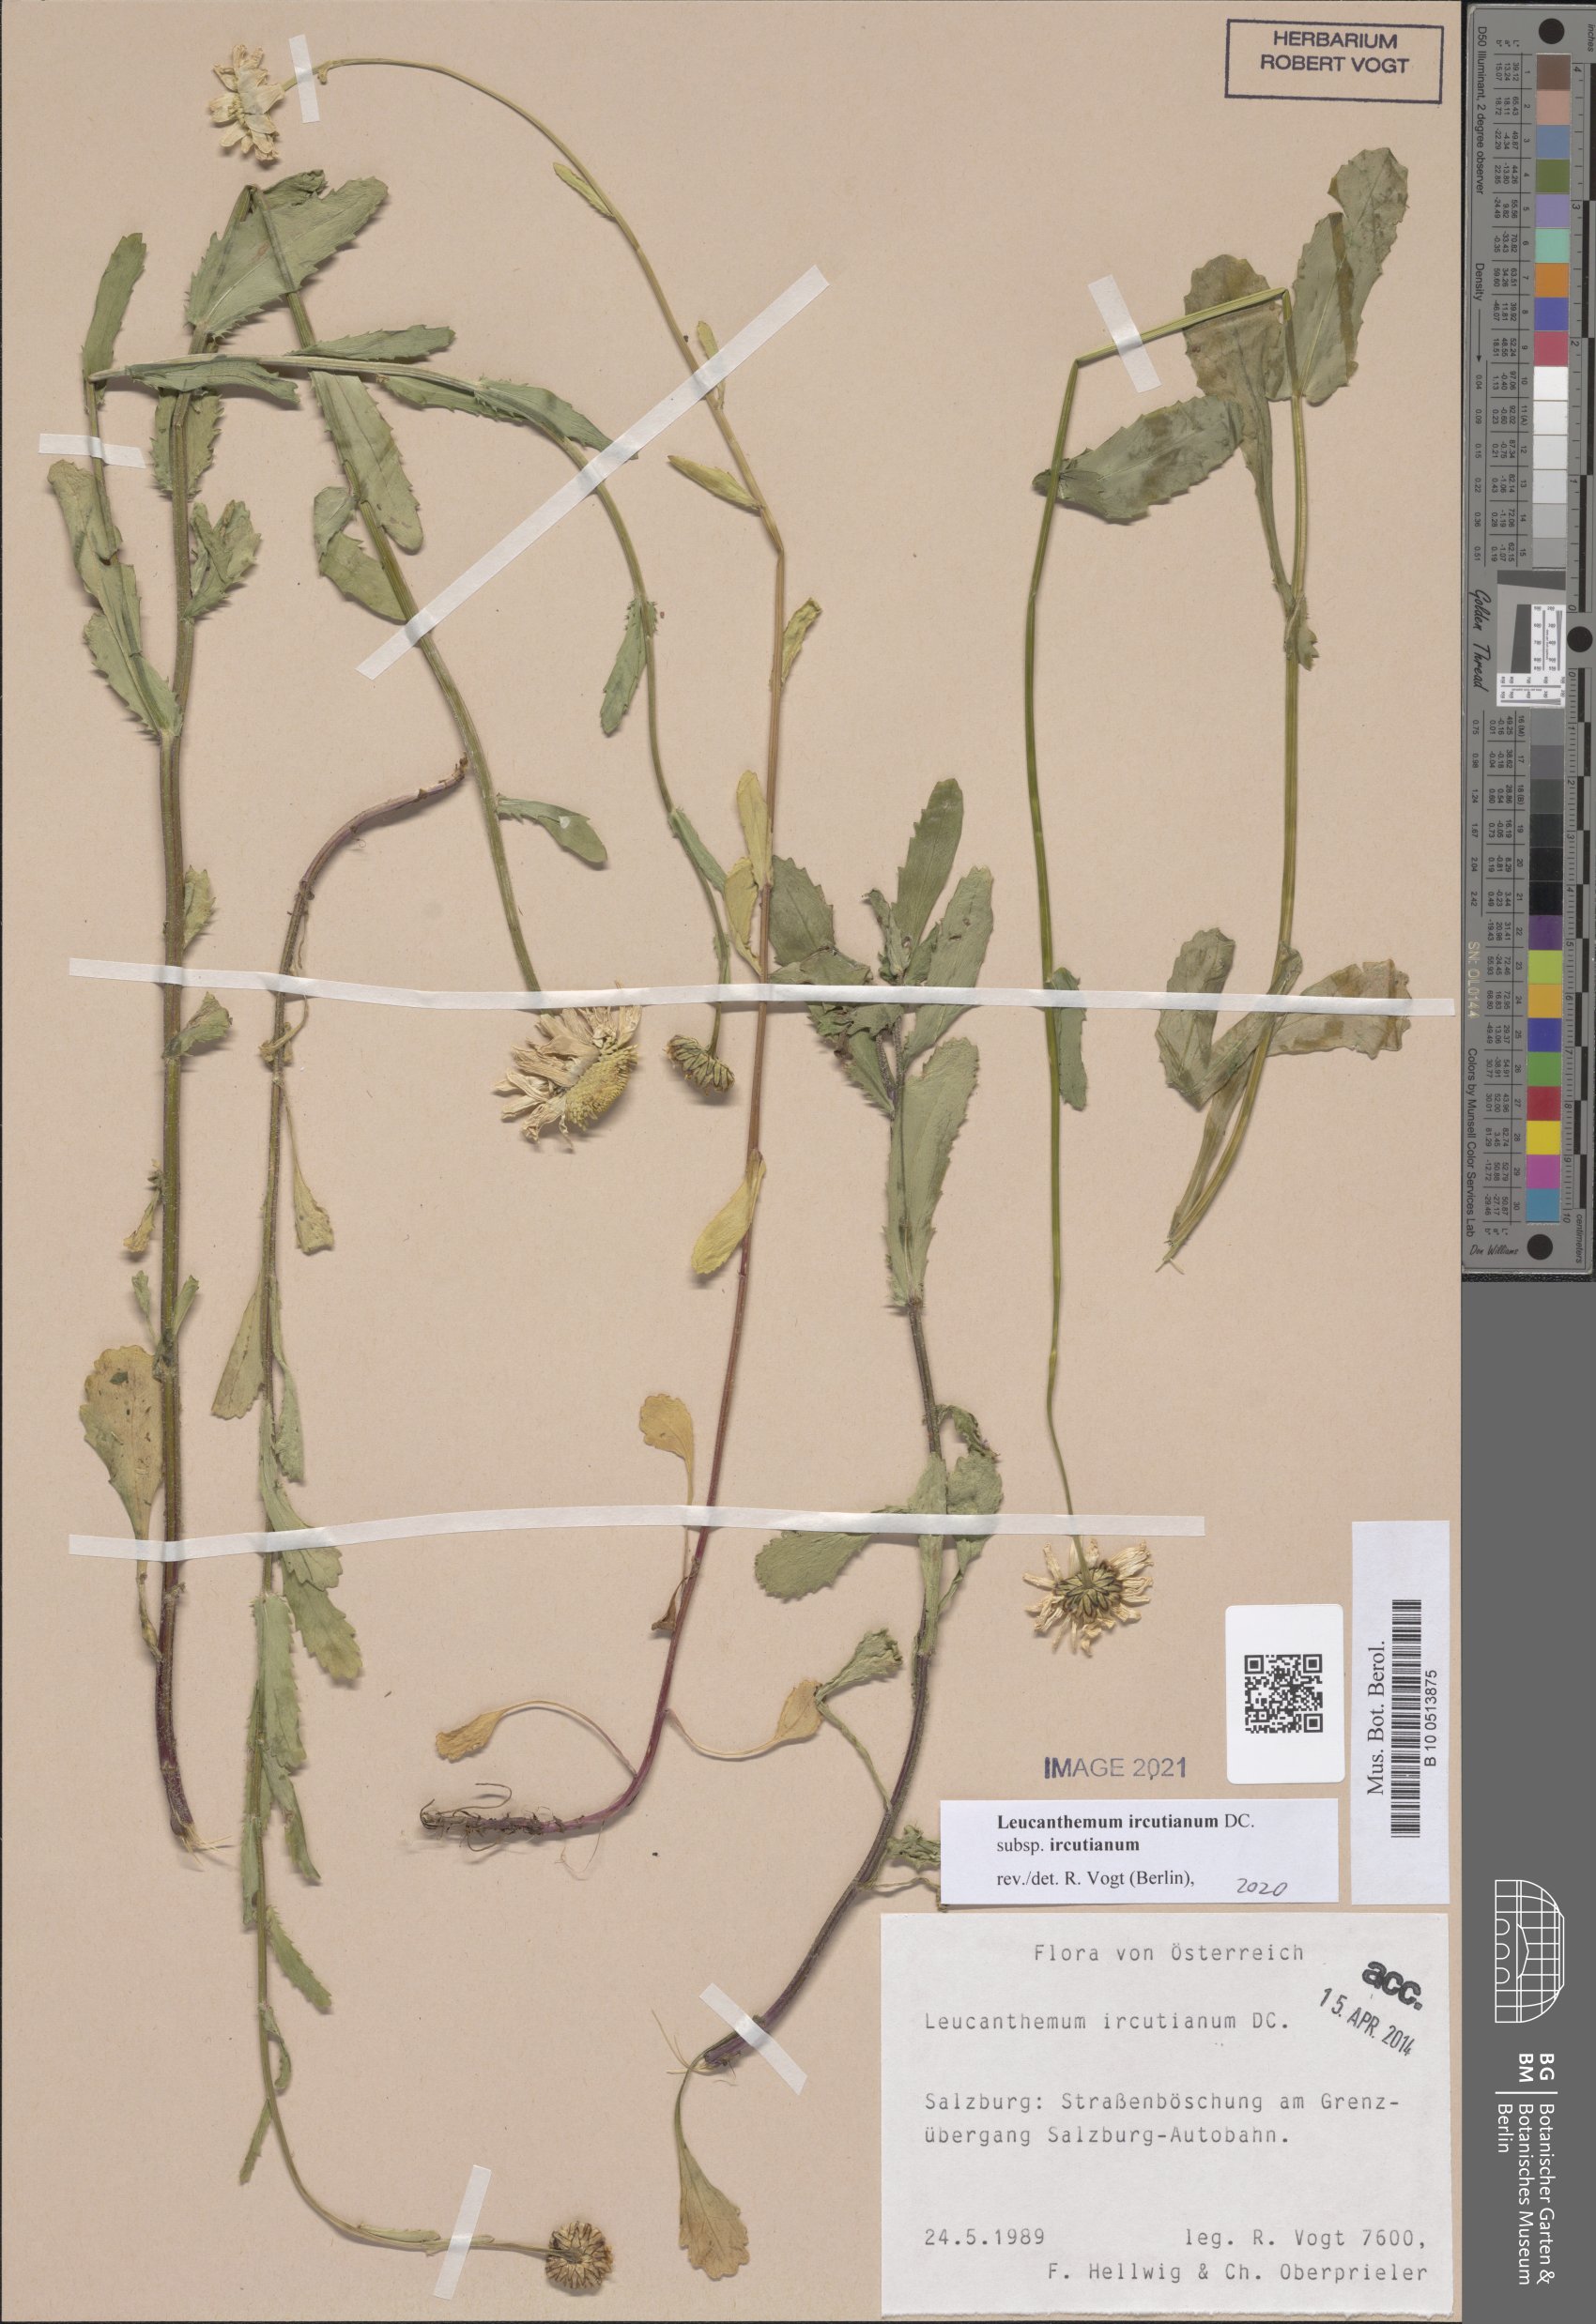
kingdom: Plantae
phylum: Tracheophyta
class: Magnoliopsida
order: Asterales
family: Asteraceae
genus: Leucanthemum
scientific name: Leucanthemum ircutianum
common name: Daisy
